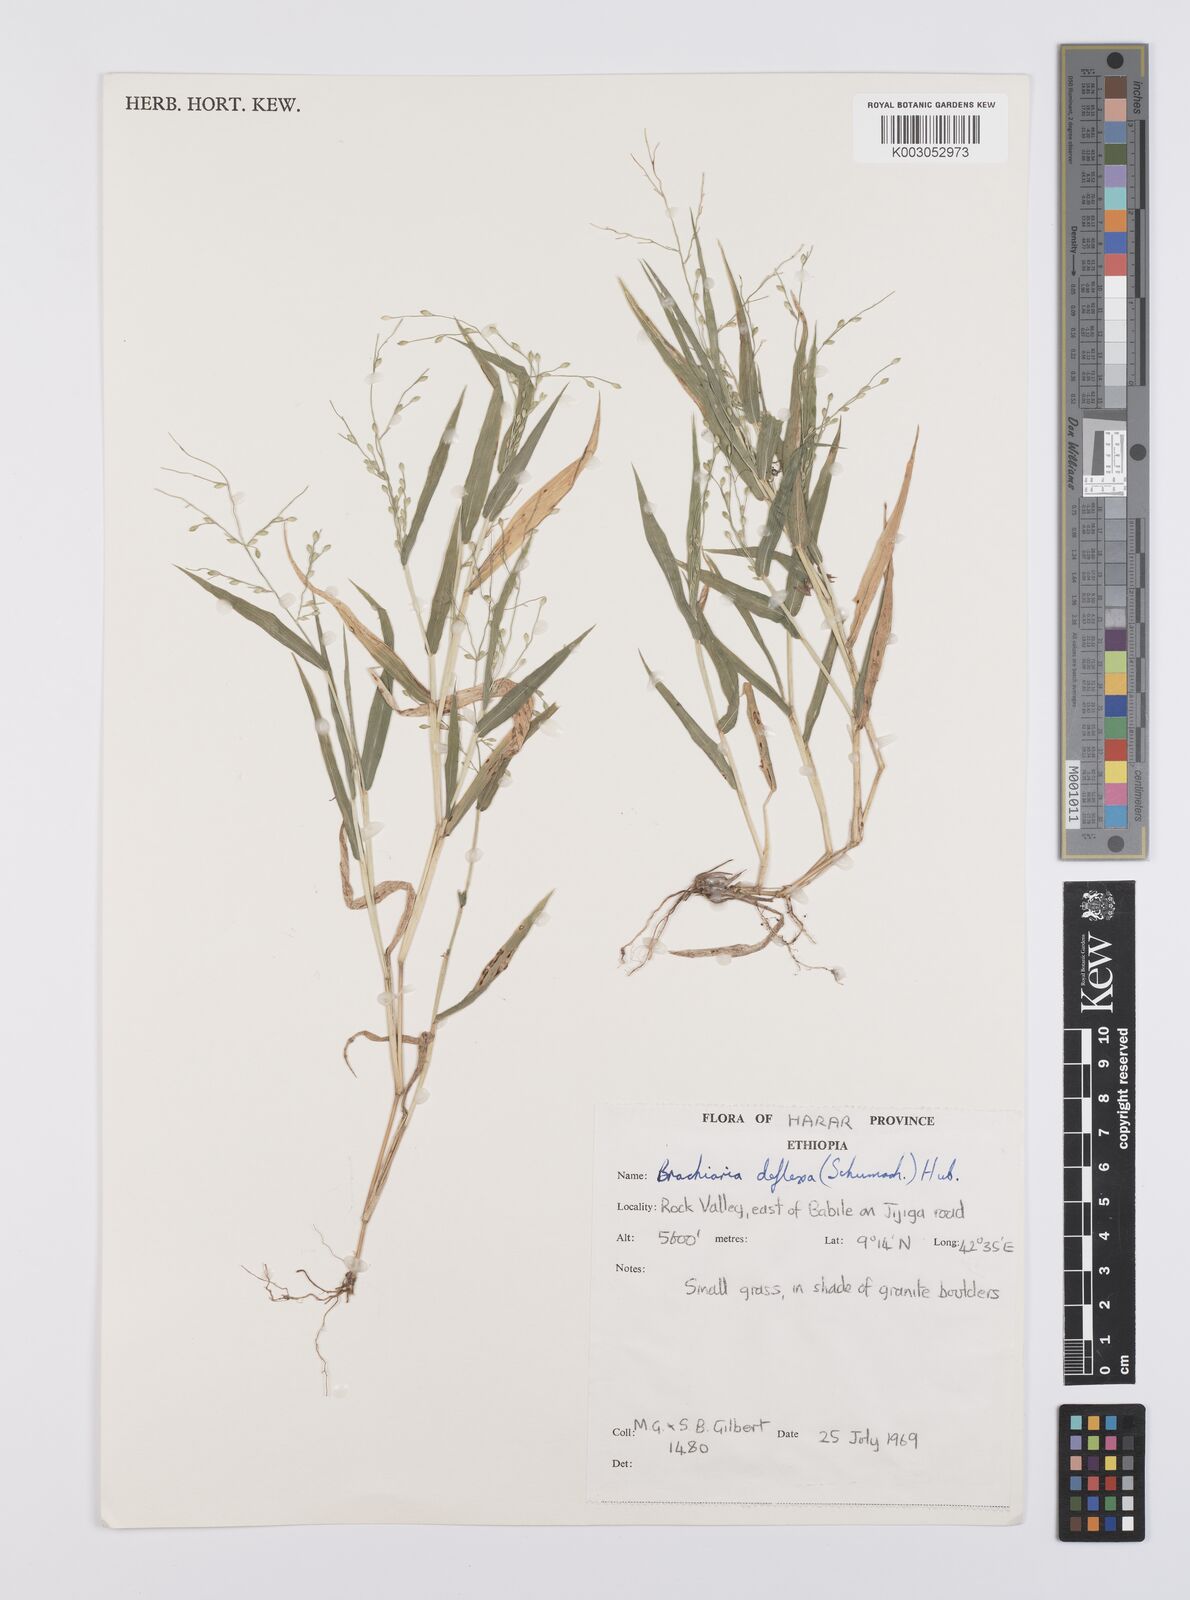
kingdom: Plantae
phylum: Tracheophyta
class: Liliopsida
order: Poales
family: Poaceae
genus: Urochloa
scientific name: Urochloa deflexa
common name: Guinea millet
